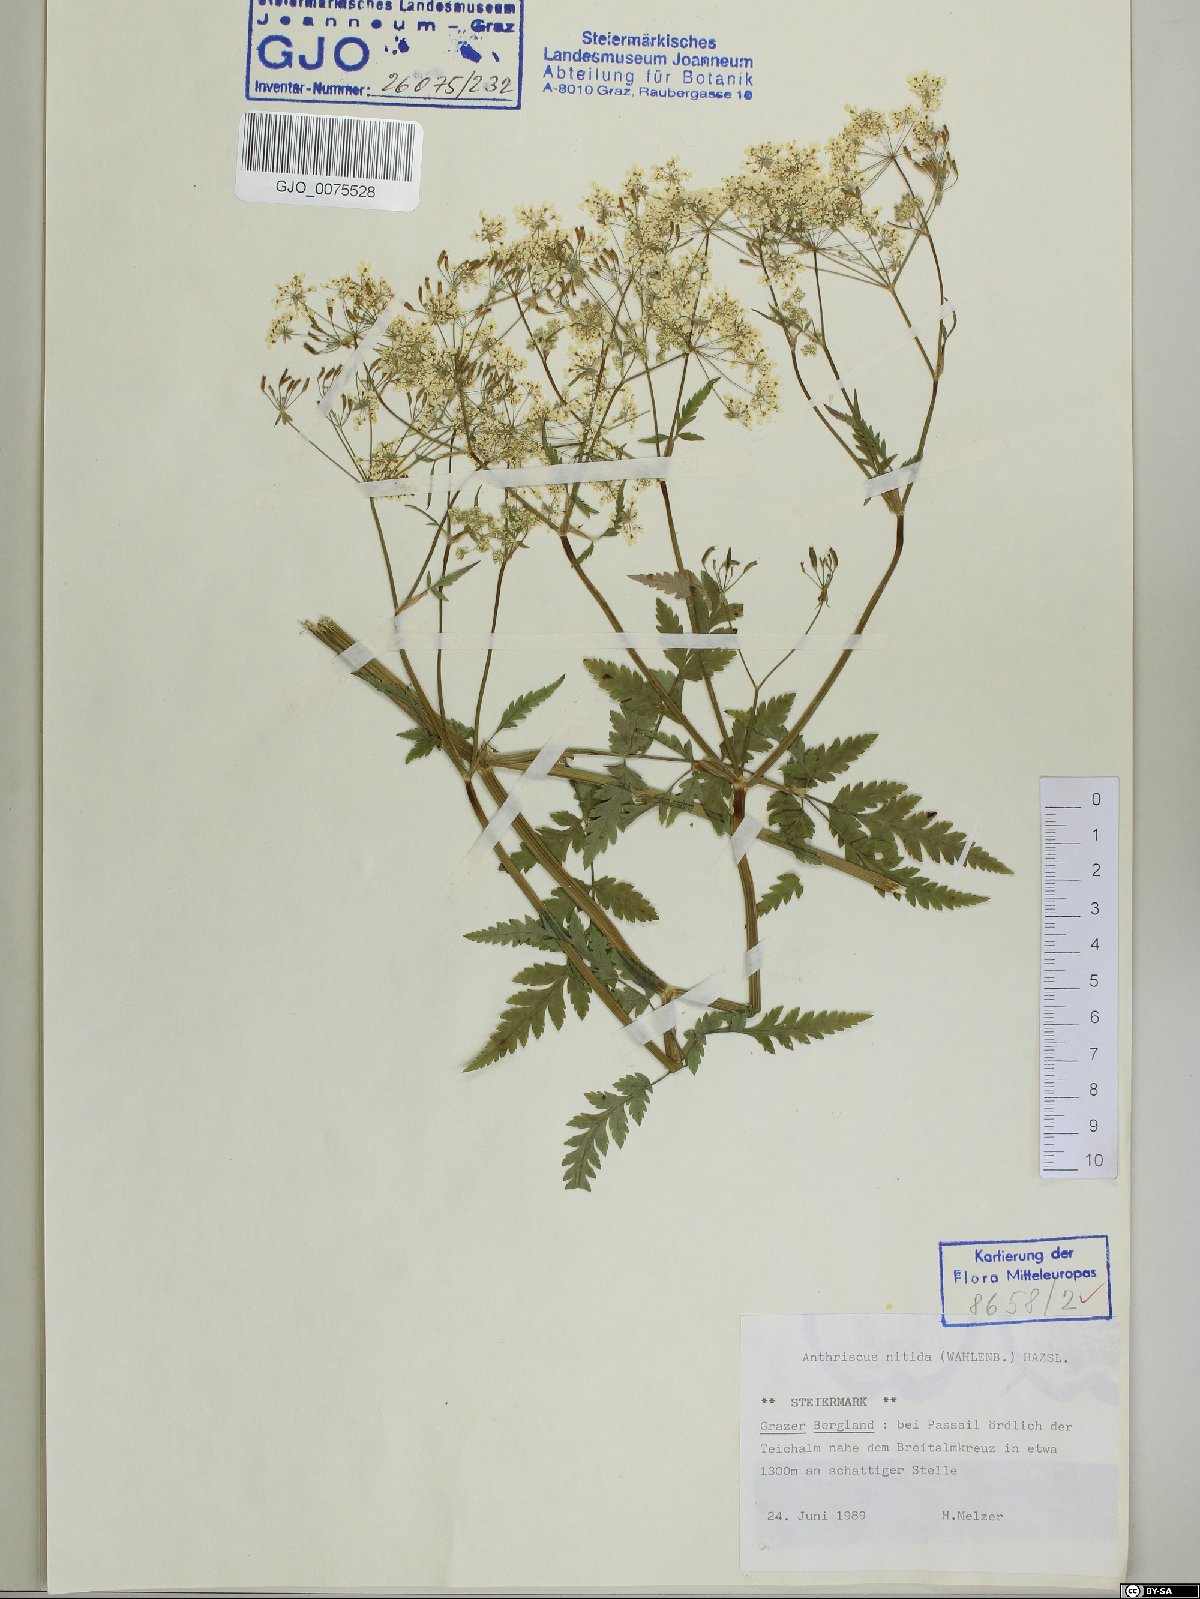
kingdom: Plantae
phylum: Tracheophyta
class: Magnoliopsida
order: Apiales
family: Apiaceae
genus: Anthriscus
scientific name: Anthriscus nitida
